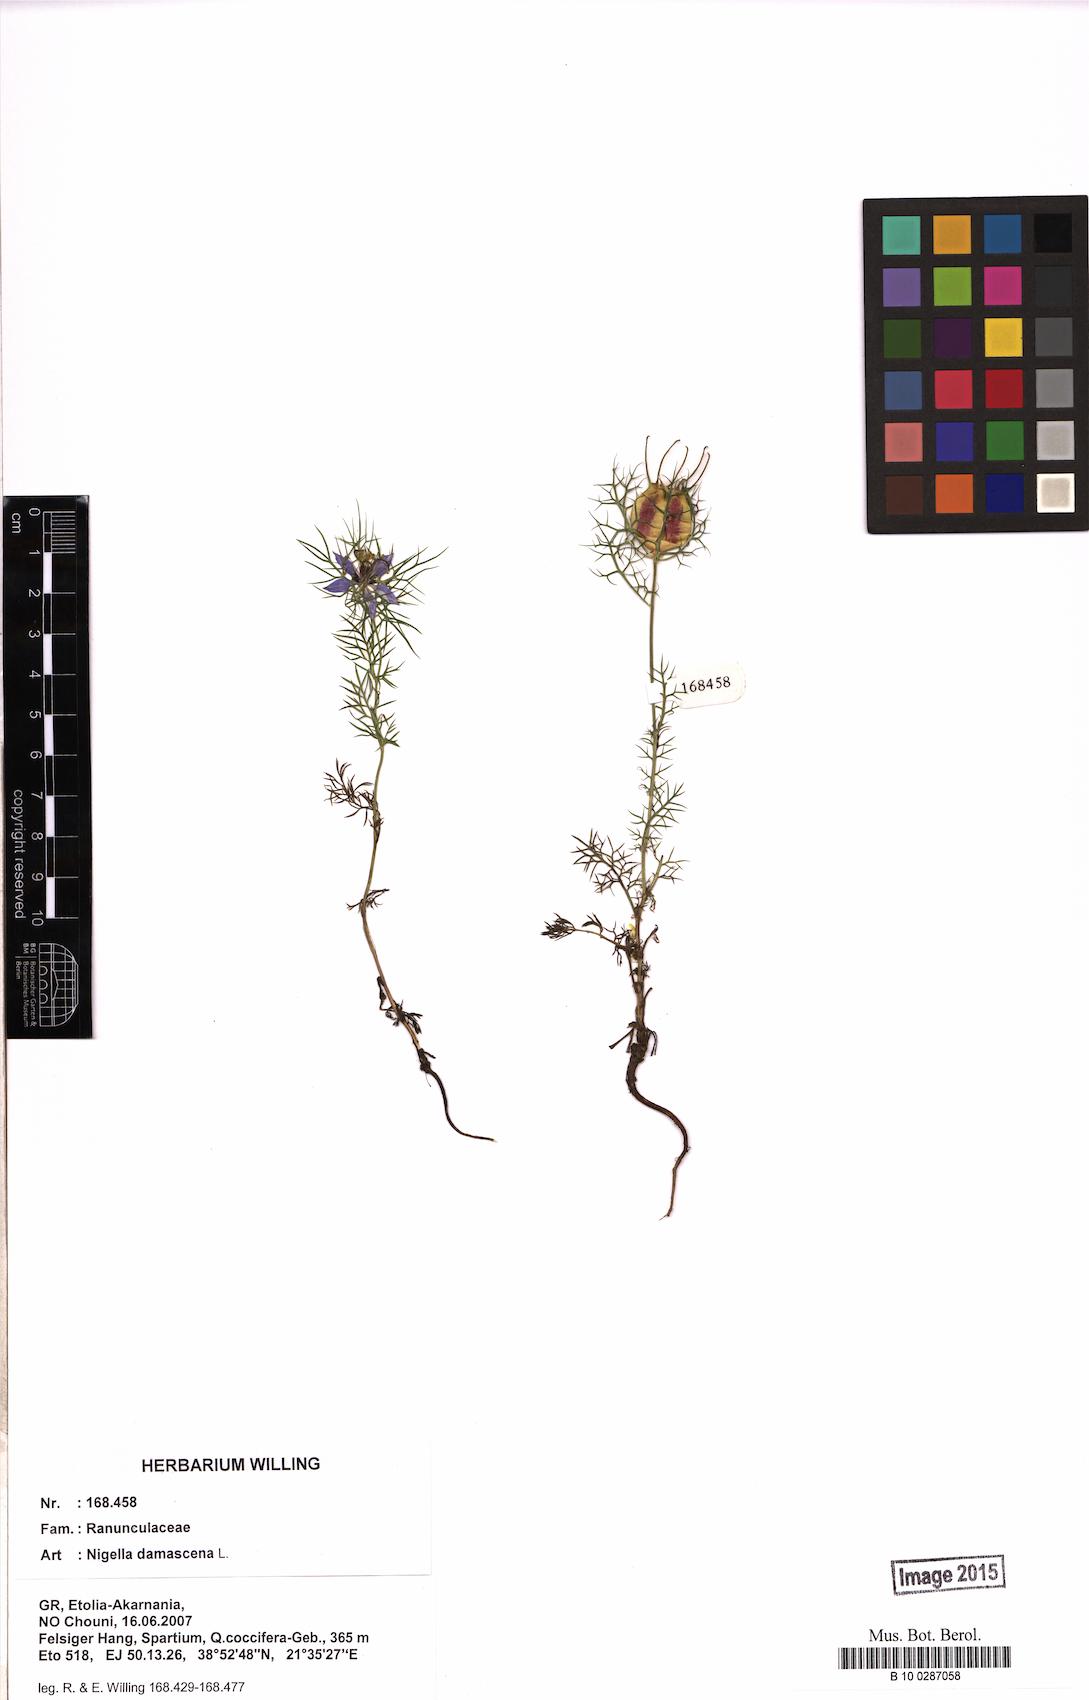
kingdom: Plantae
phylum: Tracheophyta
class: Magnoliopsida
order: Ranunculales
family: Ranunculaceae
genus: Nigella
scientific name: Nigella damascena
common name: Love-in-a-mist
